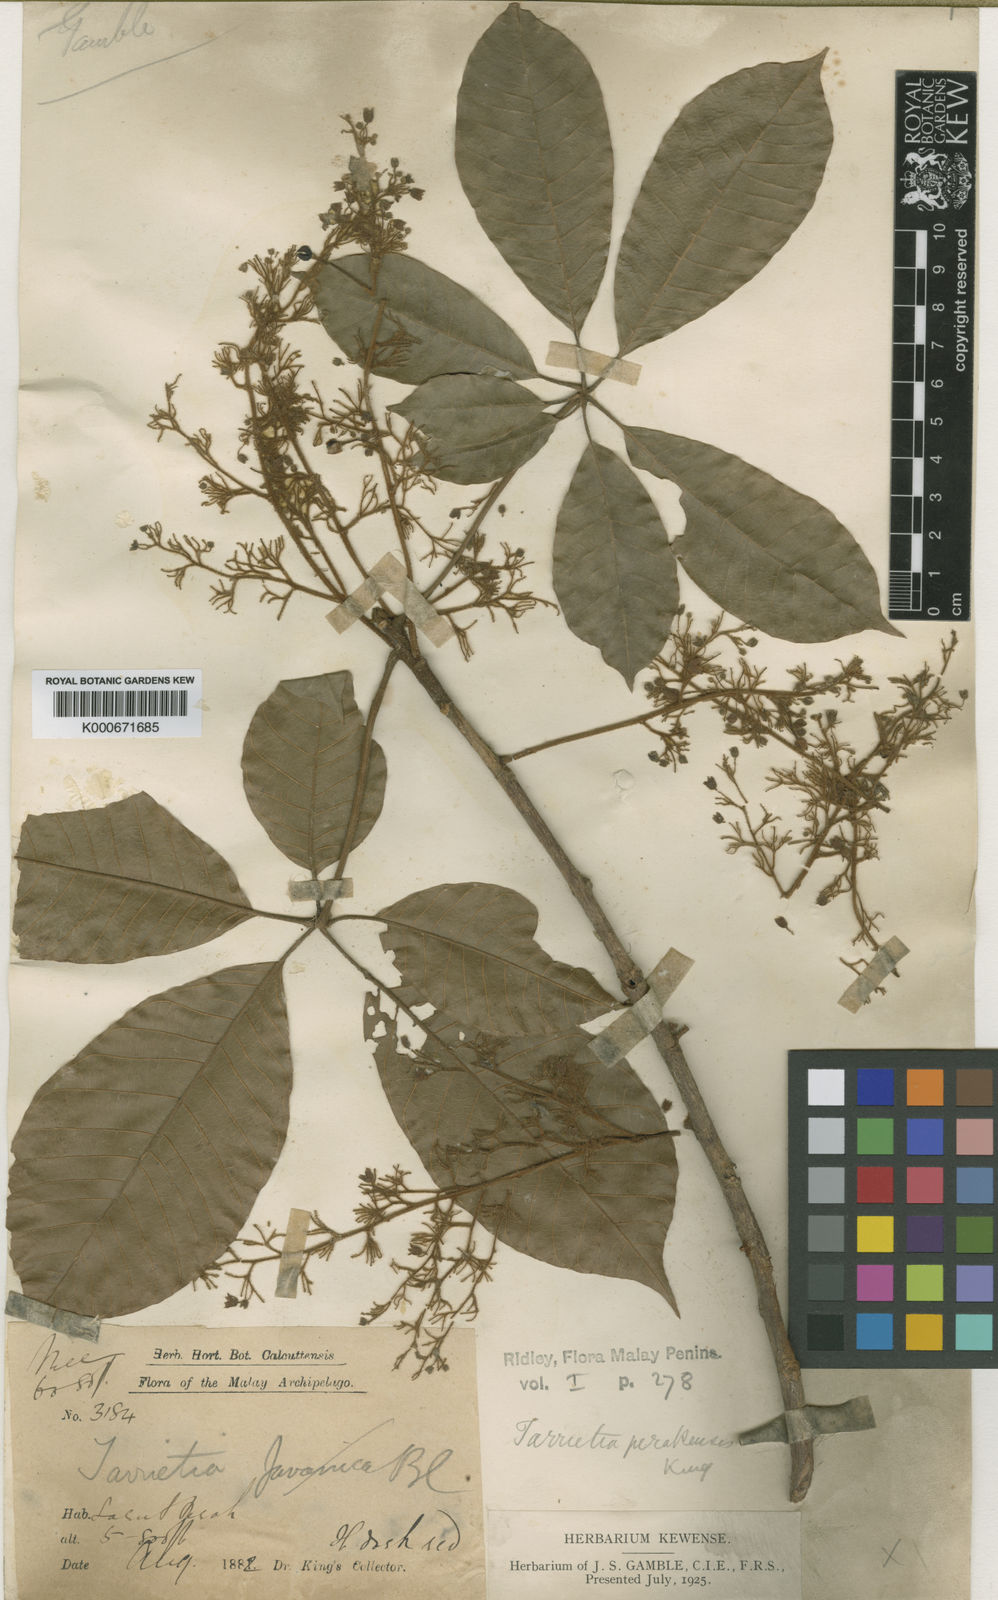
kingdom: Plantae
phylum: Tracheophyta
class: Magnoliopsida
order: Malvales
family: Malvaceae
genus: Heritiera
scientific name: Heritiera sumatrana
